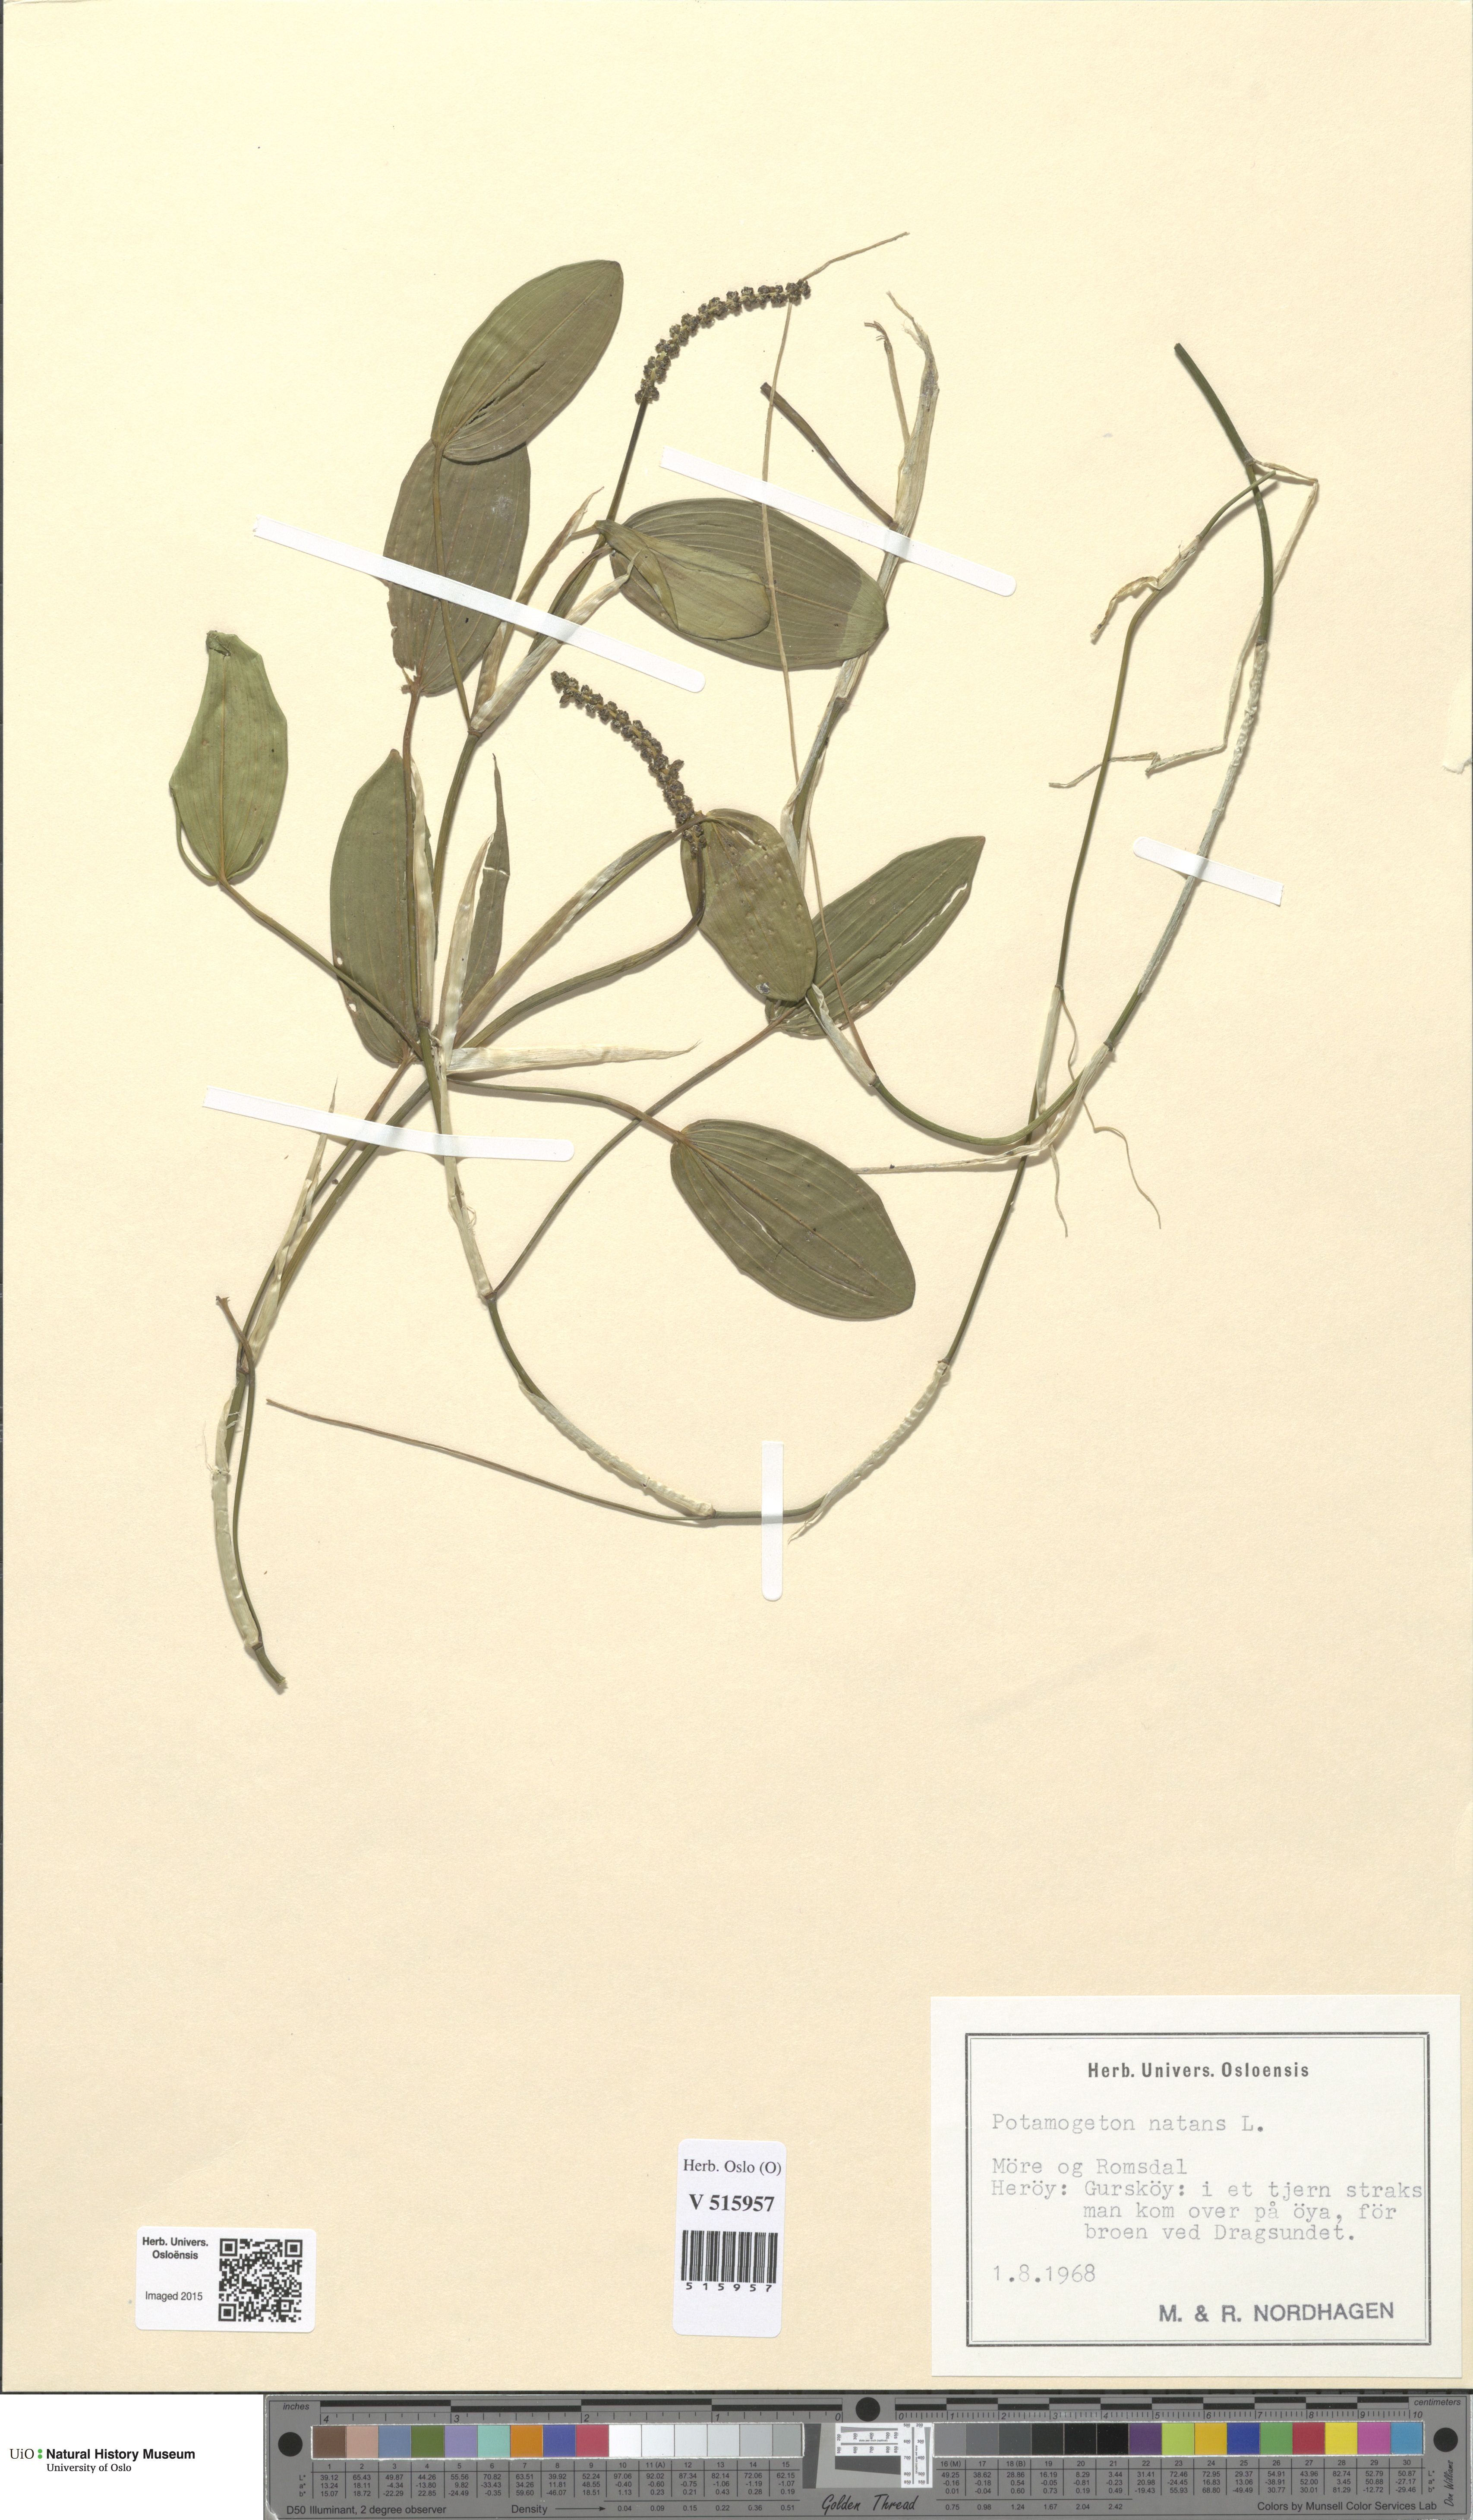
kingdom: Plantae
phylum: Tracheophyta
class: Liliopsida
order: Alismatales
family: Potamogetonaceae
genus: Potamogeton
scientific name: Potamogeton natans
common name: Broad-leaved pondweed
